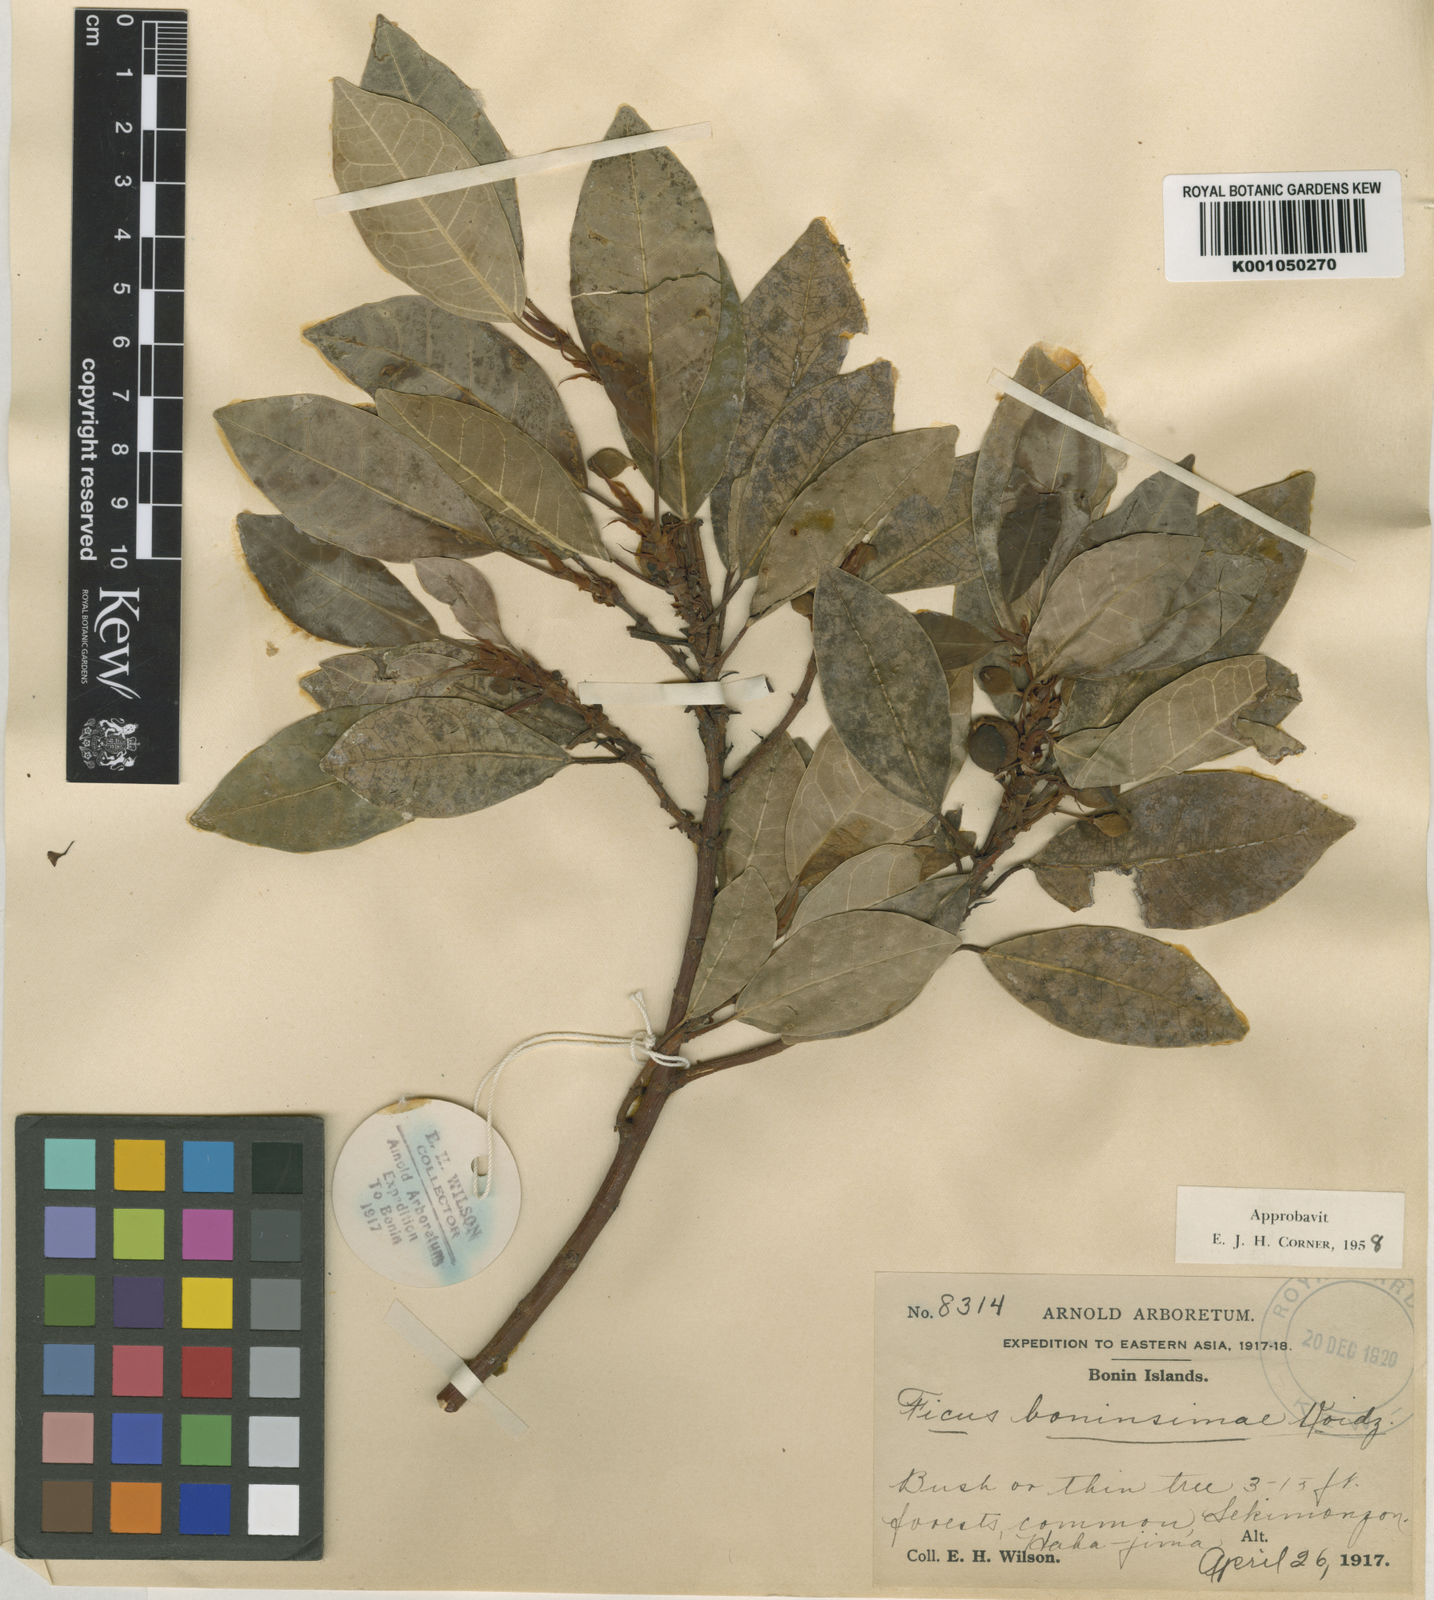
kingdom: Plantae
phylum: Tracheophyta
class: Magnoliopsida
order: Rosales
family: Moraceae
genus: Ficus
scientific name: Ficus boninsimae
